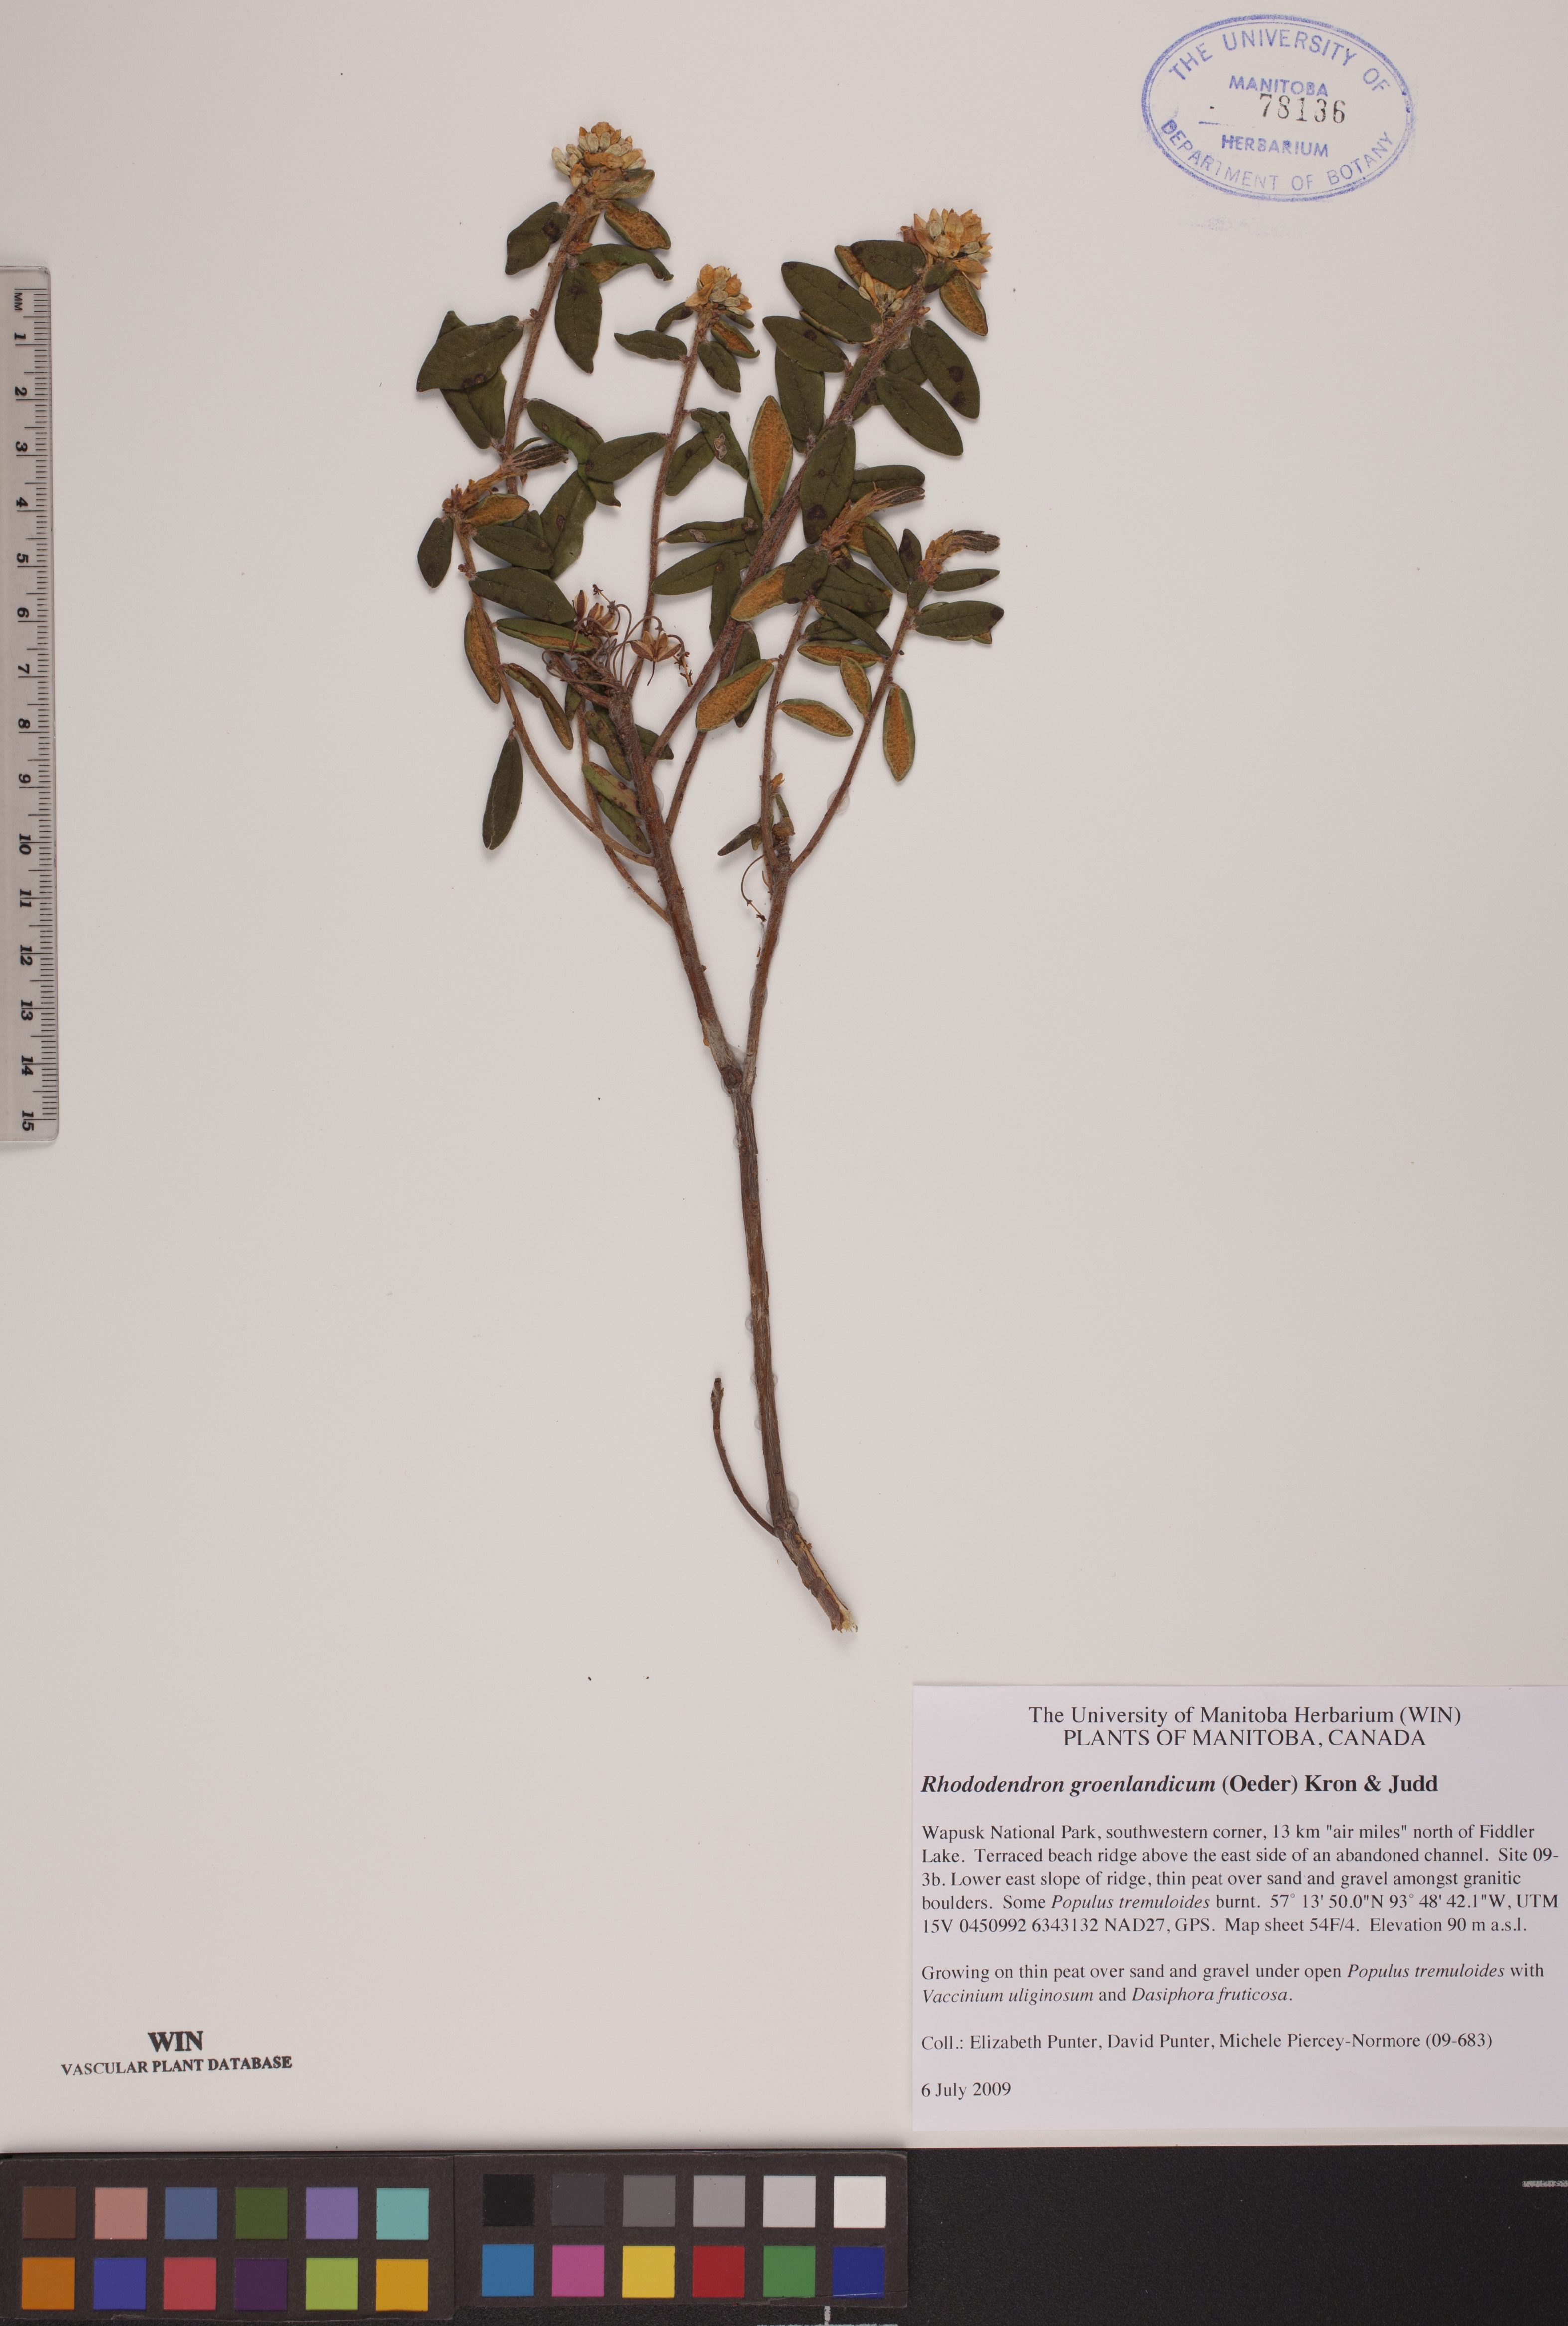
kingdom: Plantae
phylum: Tracheophyta
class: Magnoliopsida
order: Ericales
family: Ericaceae
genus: Rhododendron
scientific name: Rhododendron groenlandicum
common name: Bog labrador tea
